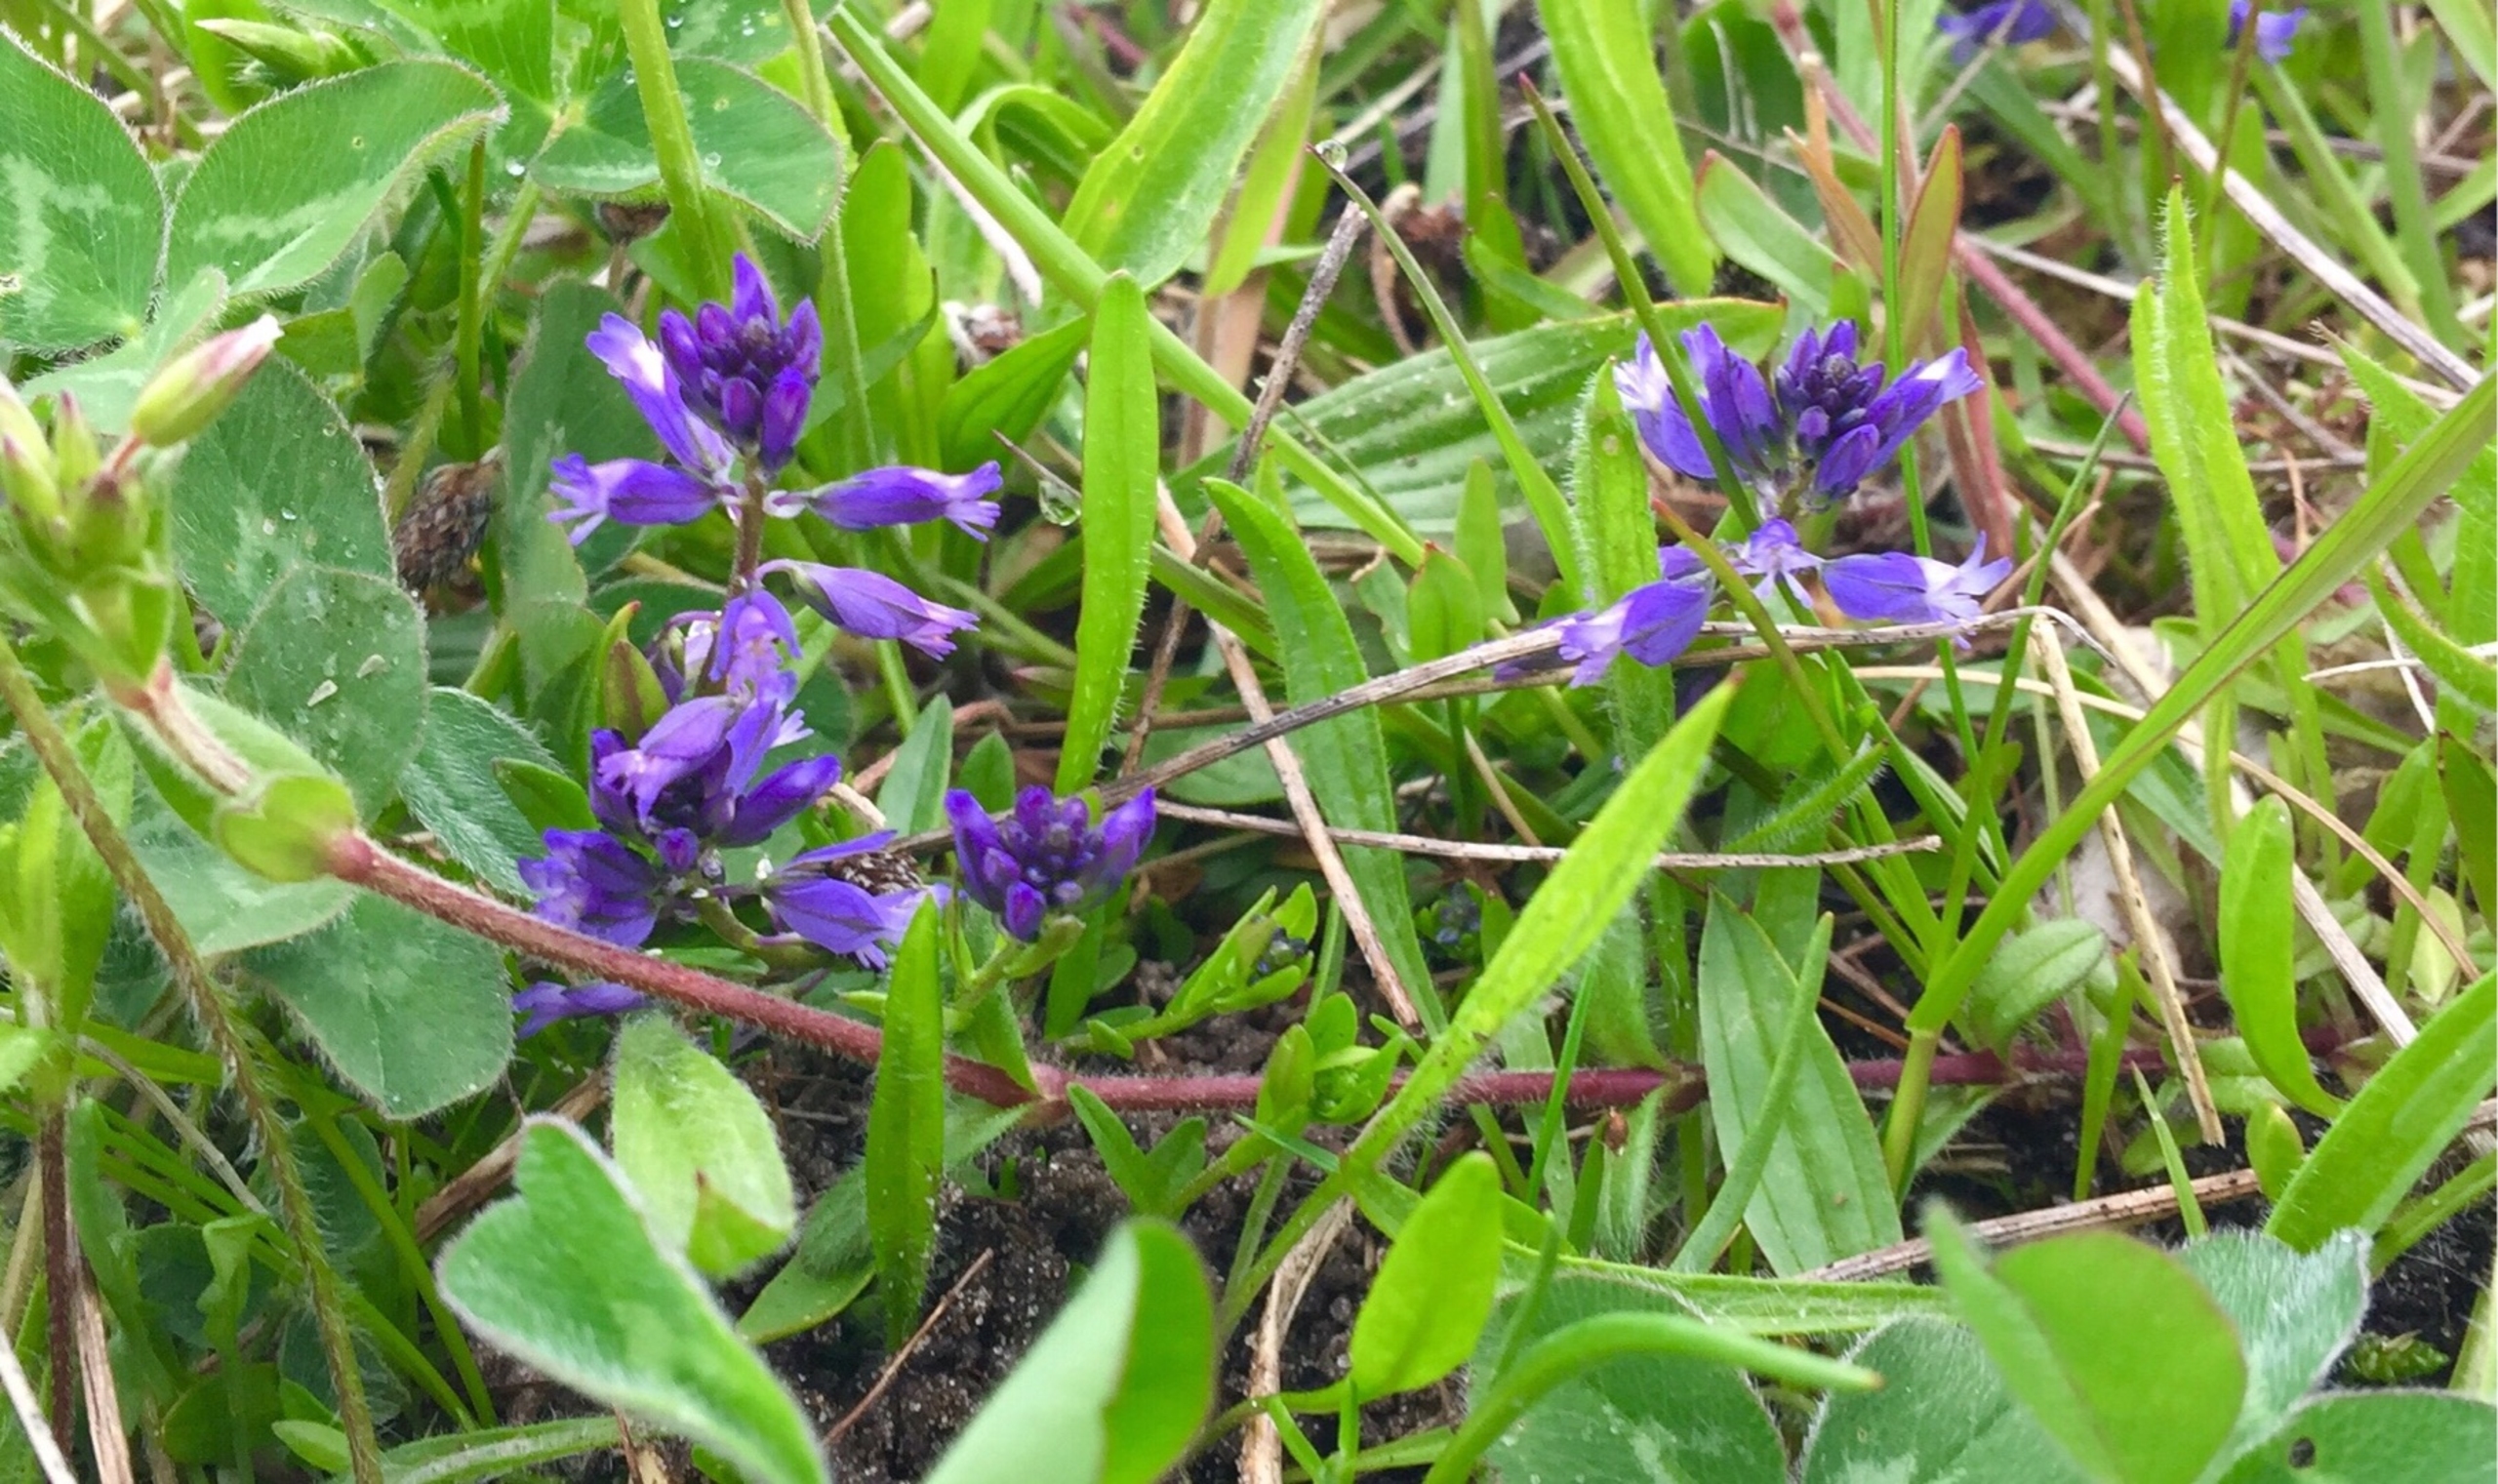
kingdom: Plantae
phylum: Tracheophyta
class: Magnoliopsida
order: Fabales
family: Polygalaceae
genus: Polygala
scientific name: Polygala vulgaris
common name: Almindelig mælkeurt
